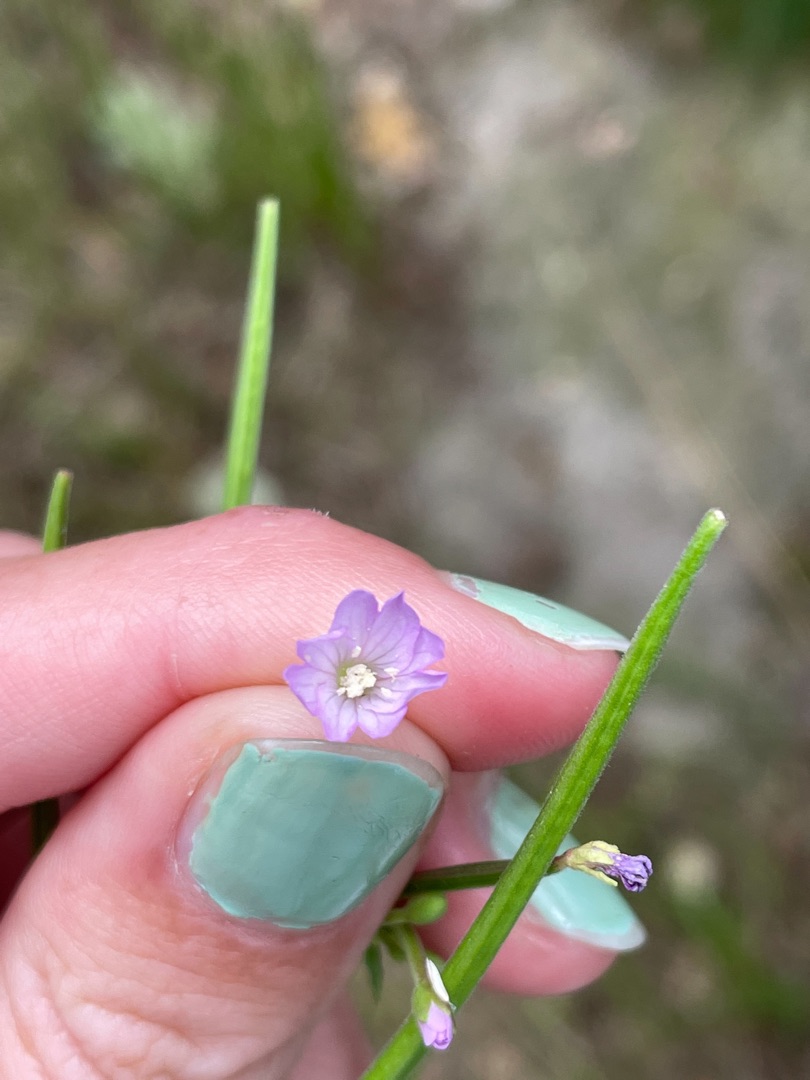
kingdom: Plantae
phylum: Tracheophyta
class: Magnoliopsida
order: Myrtales
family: Onagraceae
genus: Epilobium
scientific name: Epilobium ciliatum
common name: Kirtlet dueurt
